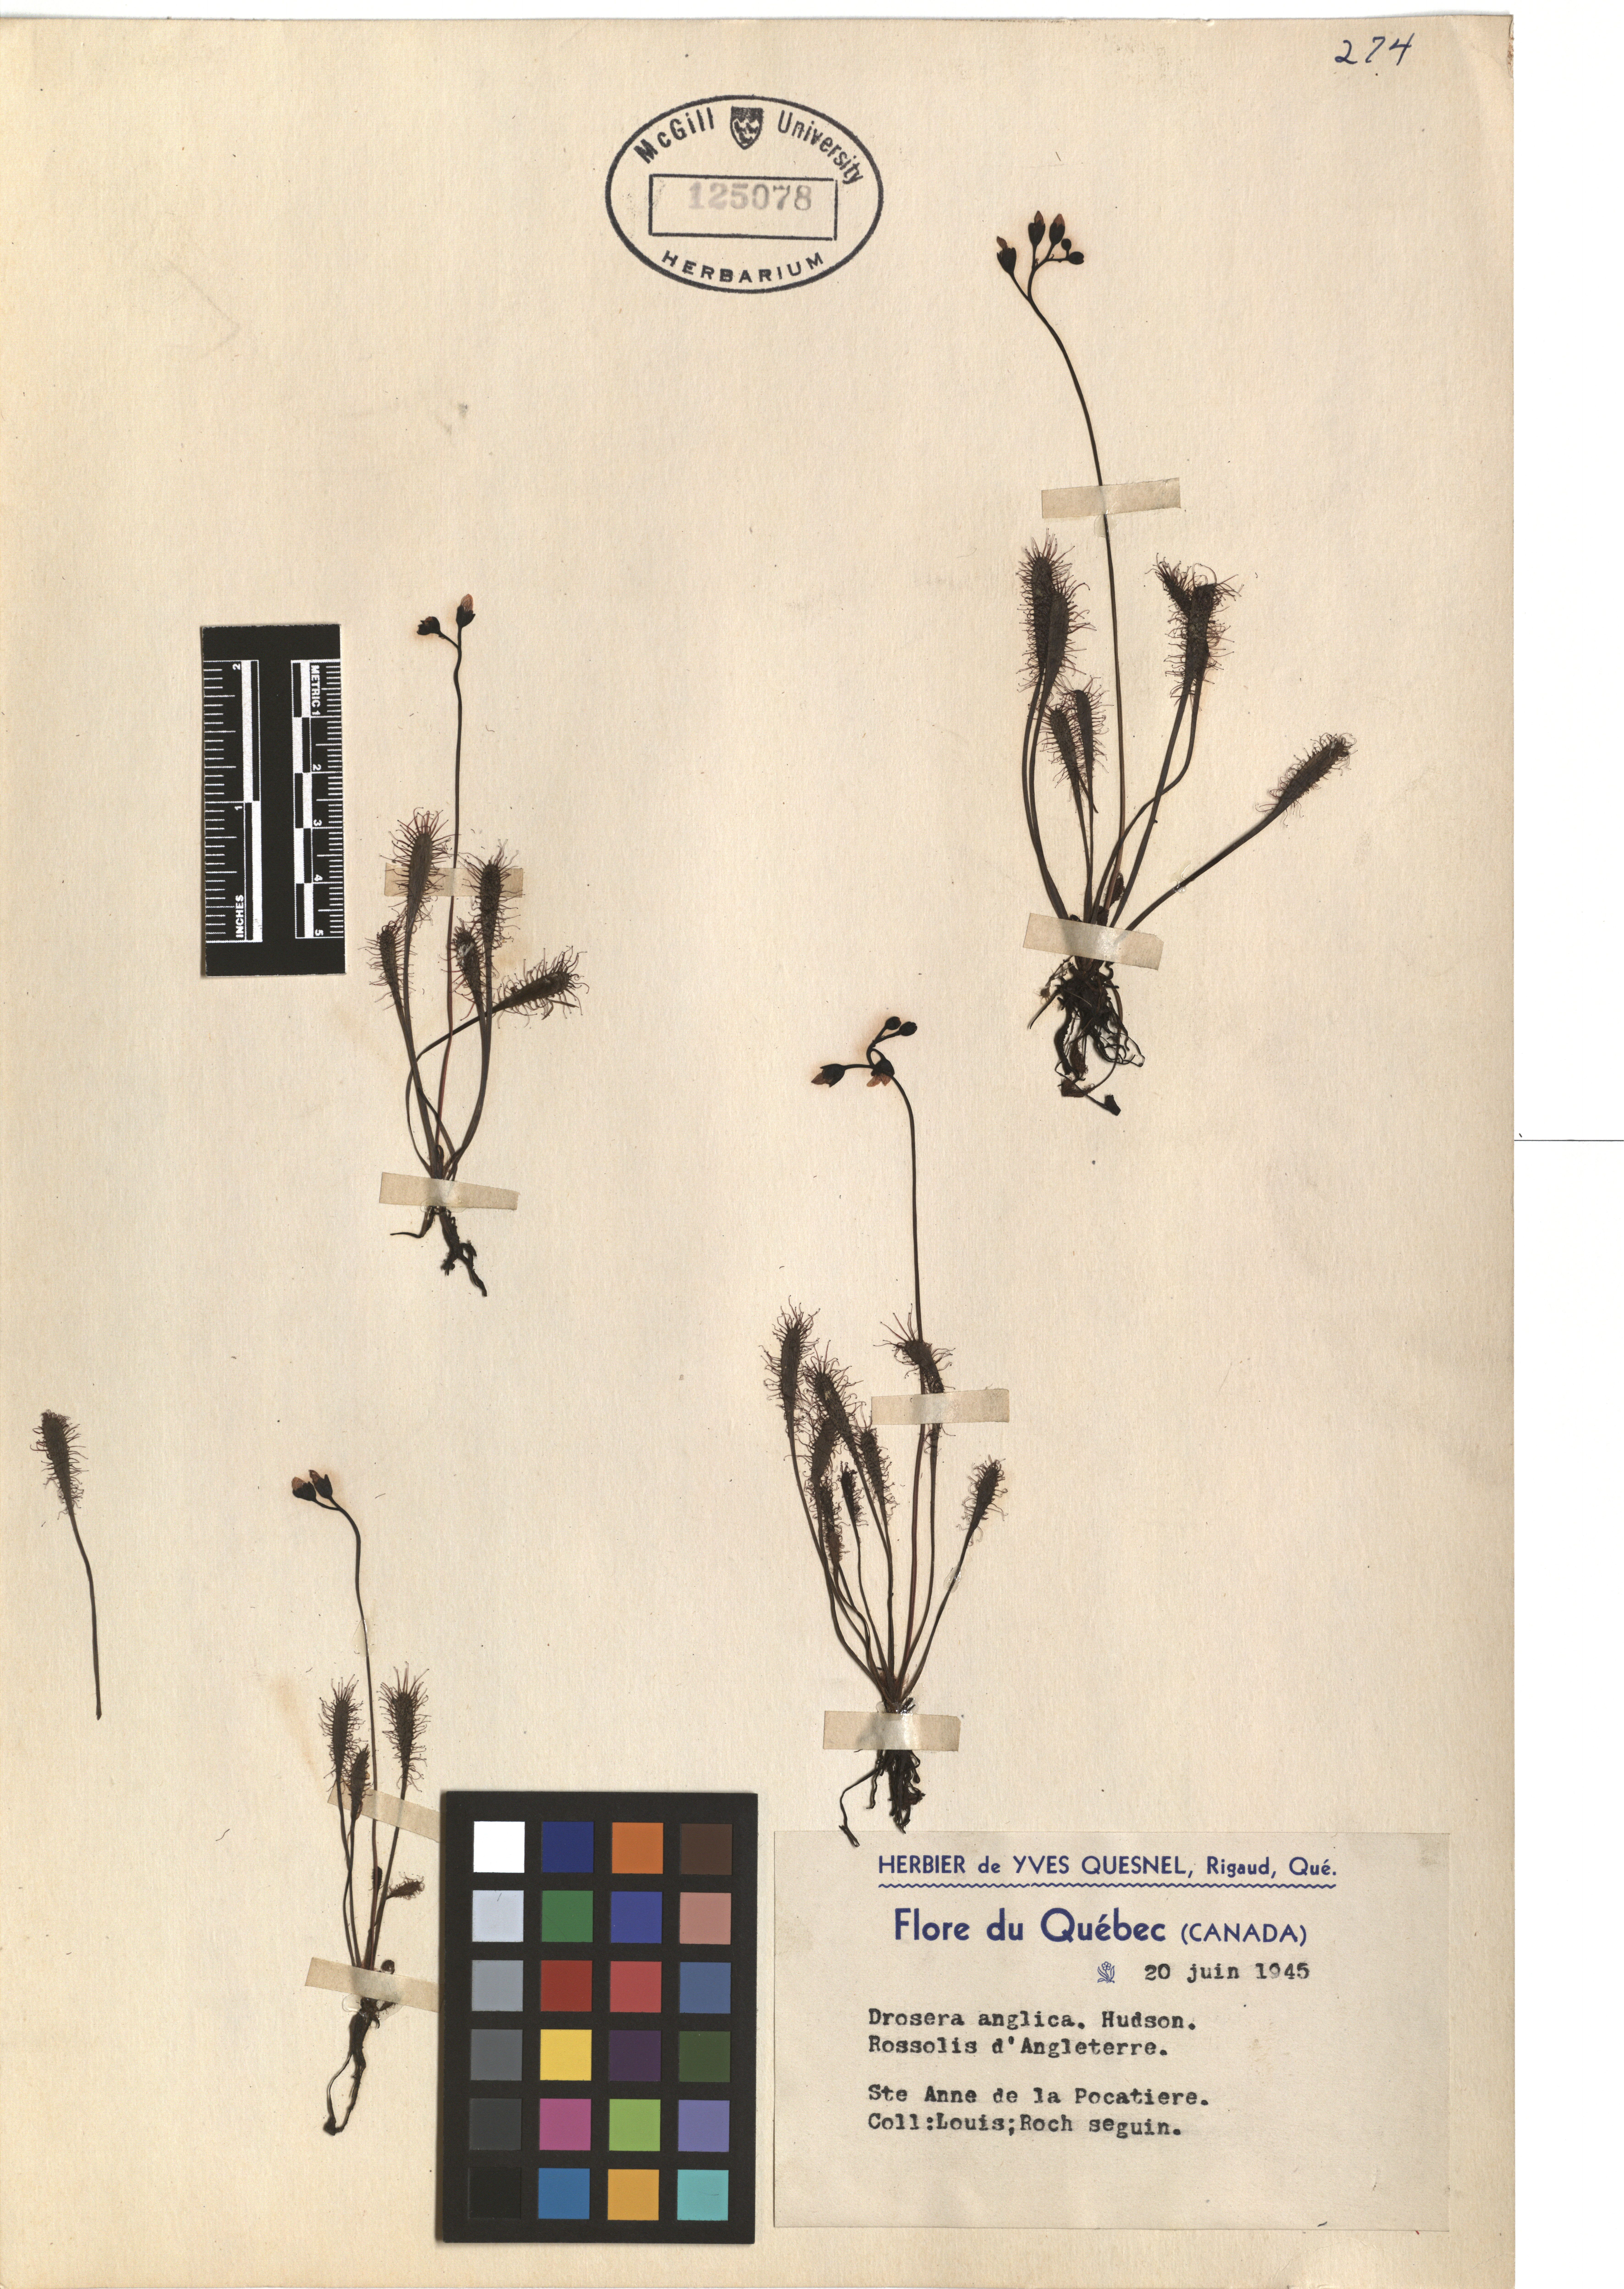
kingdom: Plantae
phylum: Tracheophyta
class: Magnoliopsida
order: Caryophyllales
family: Droseraceae
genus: Drosera
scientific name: Drosera anglica
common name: Great sundew
